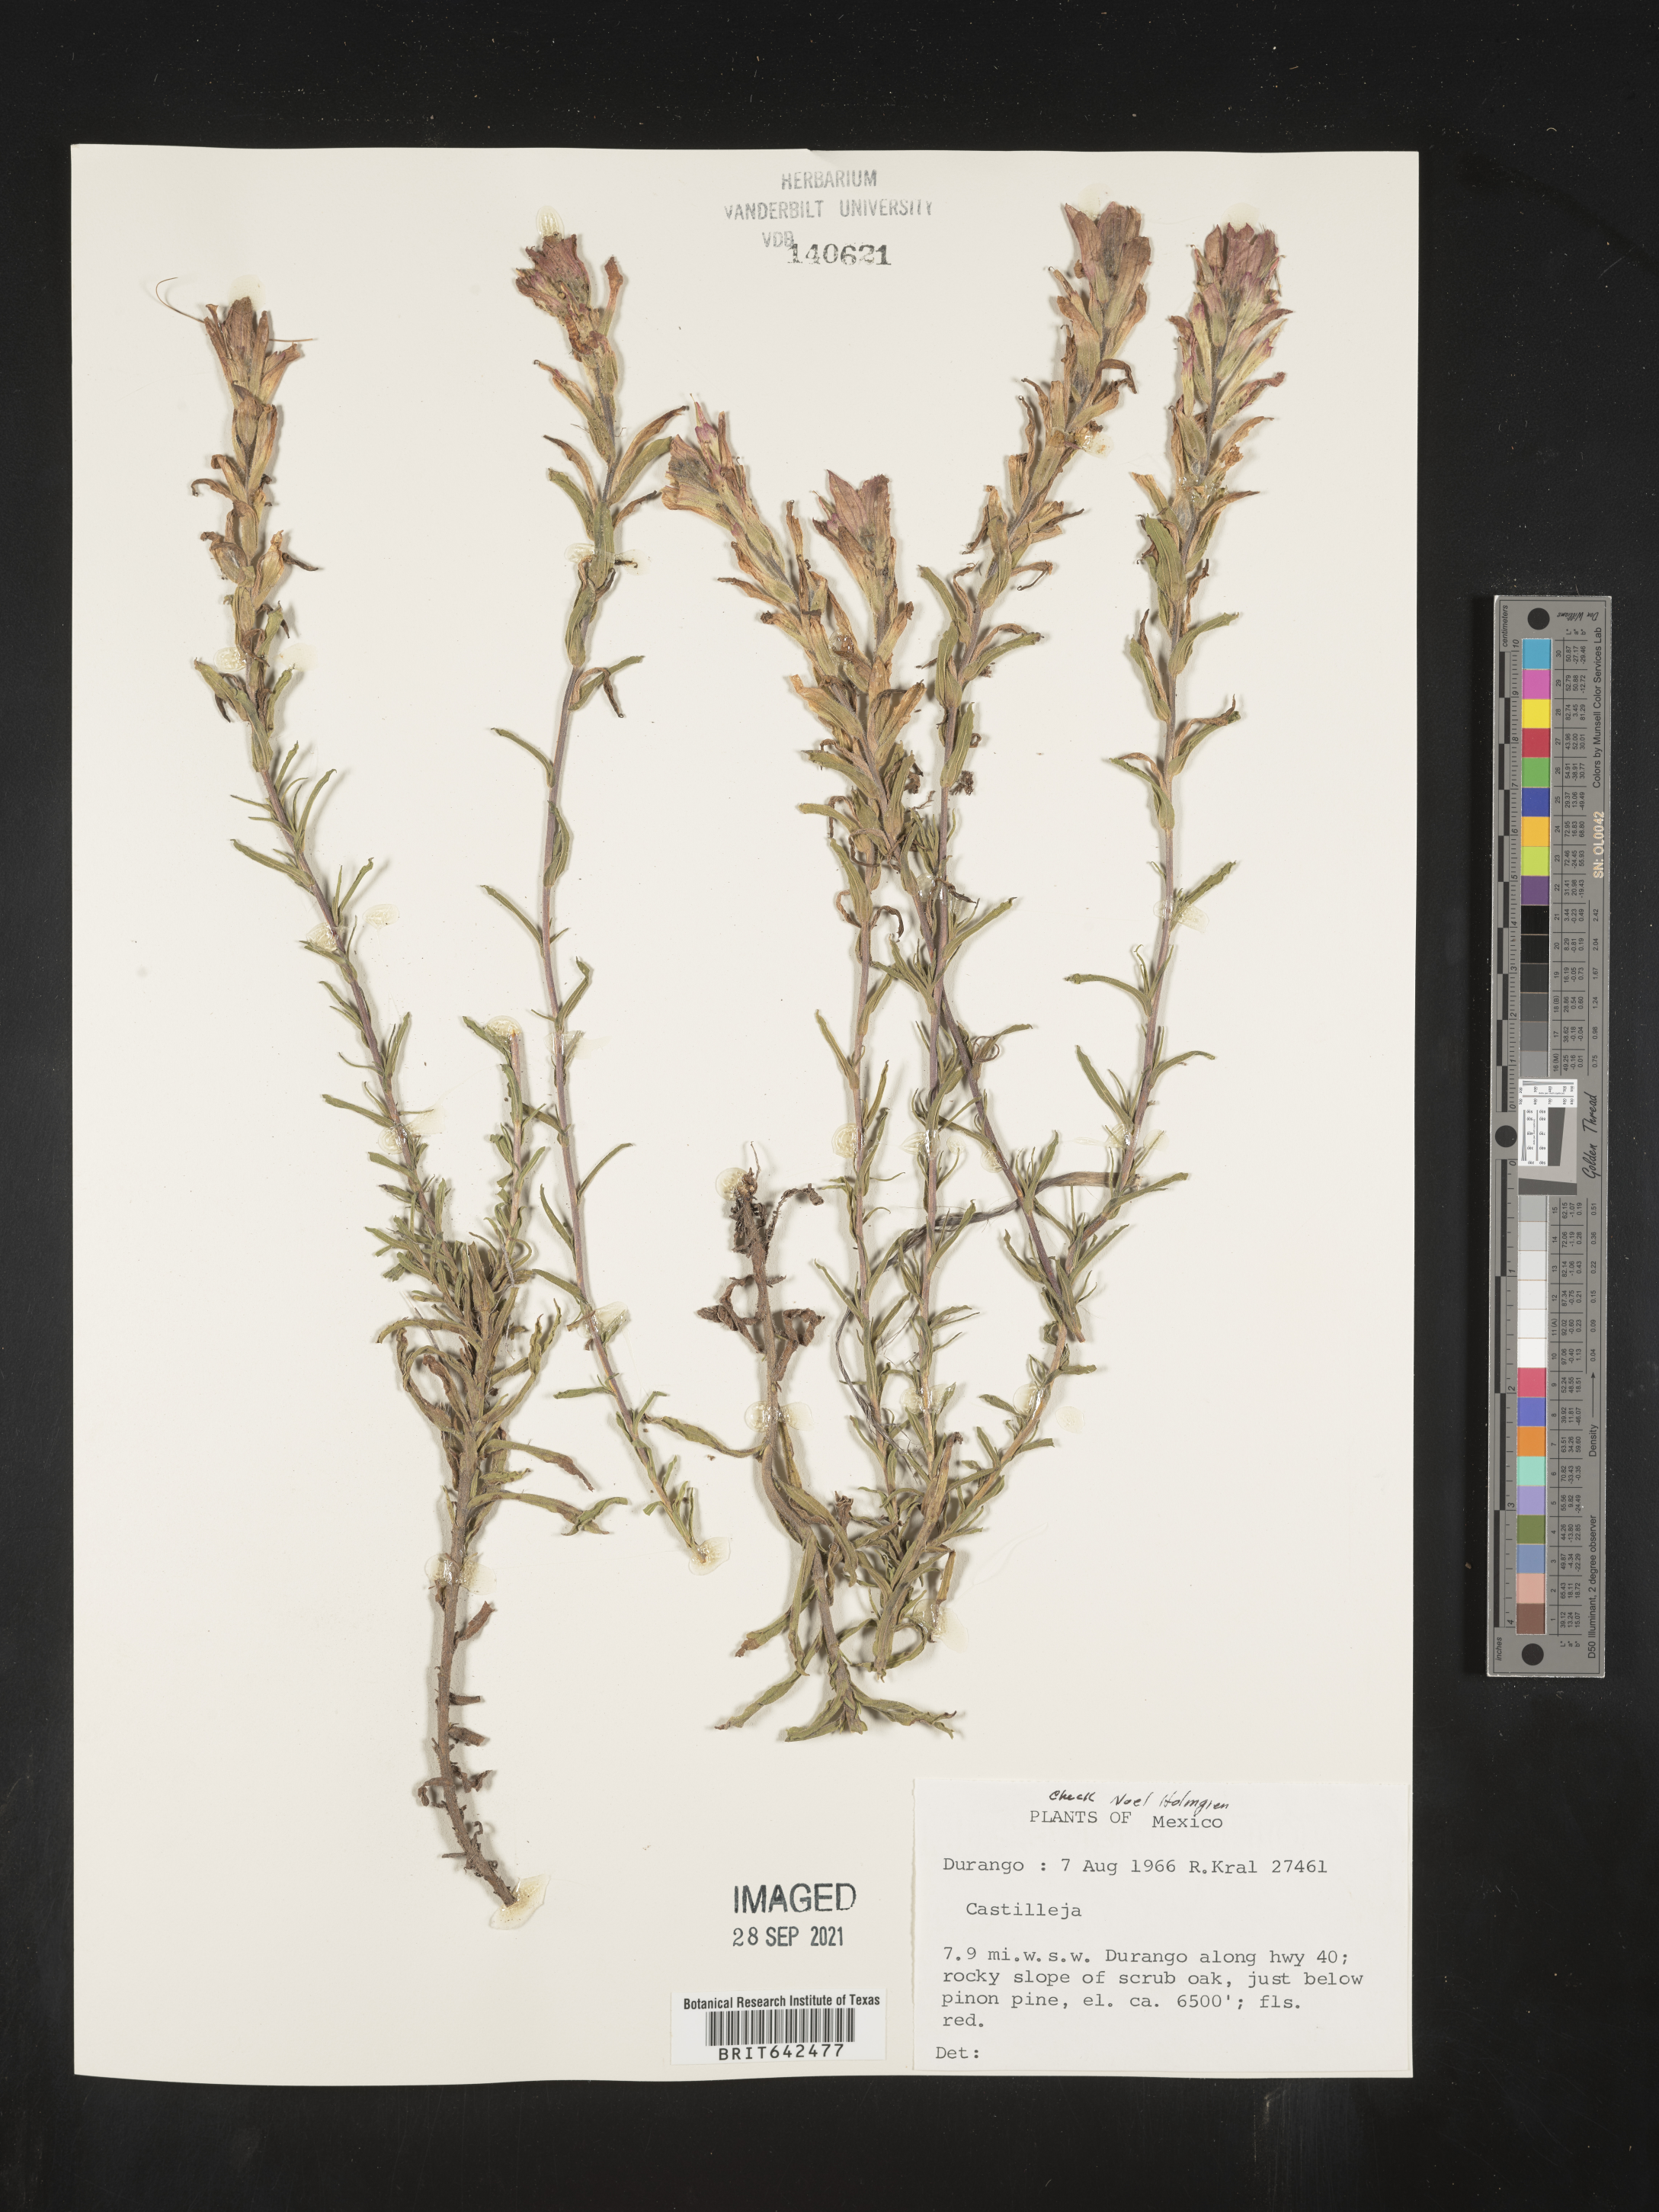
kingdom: Plantae
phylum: Tracheophyta
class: Magnoliopsida
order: Lamiales
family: Orobanchaceae
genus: Castilleja
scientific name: Castilleja
